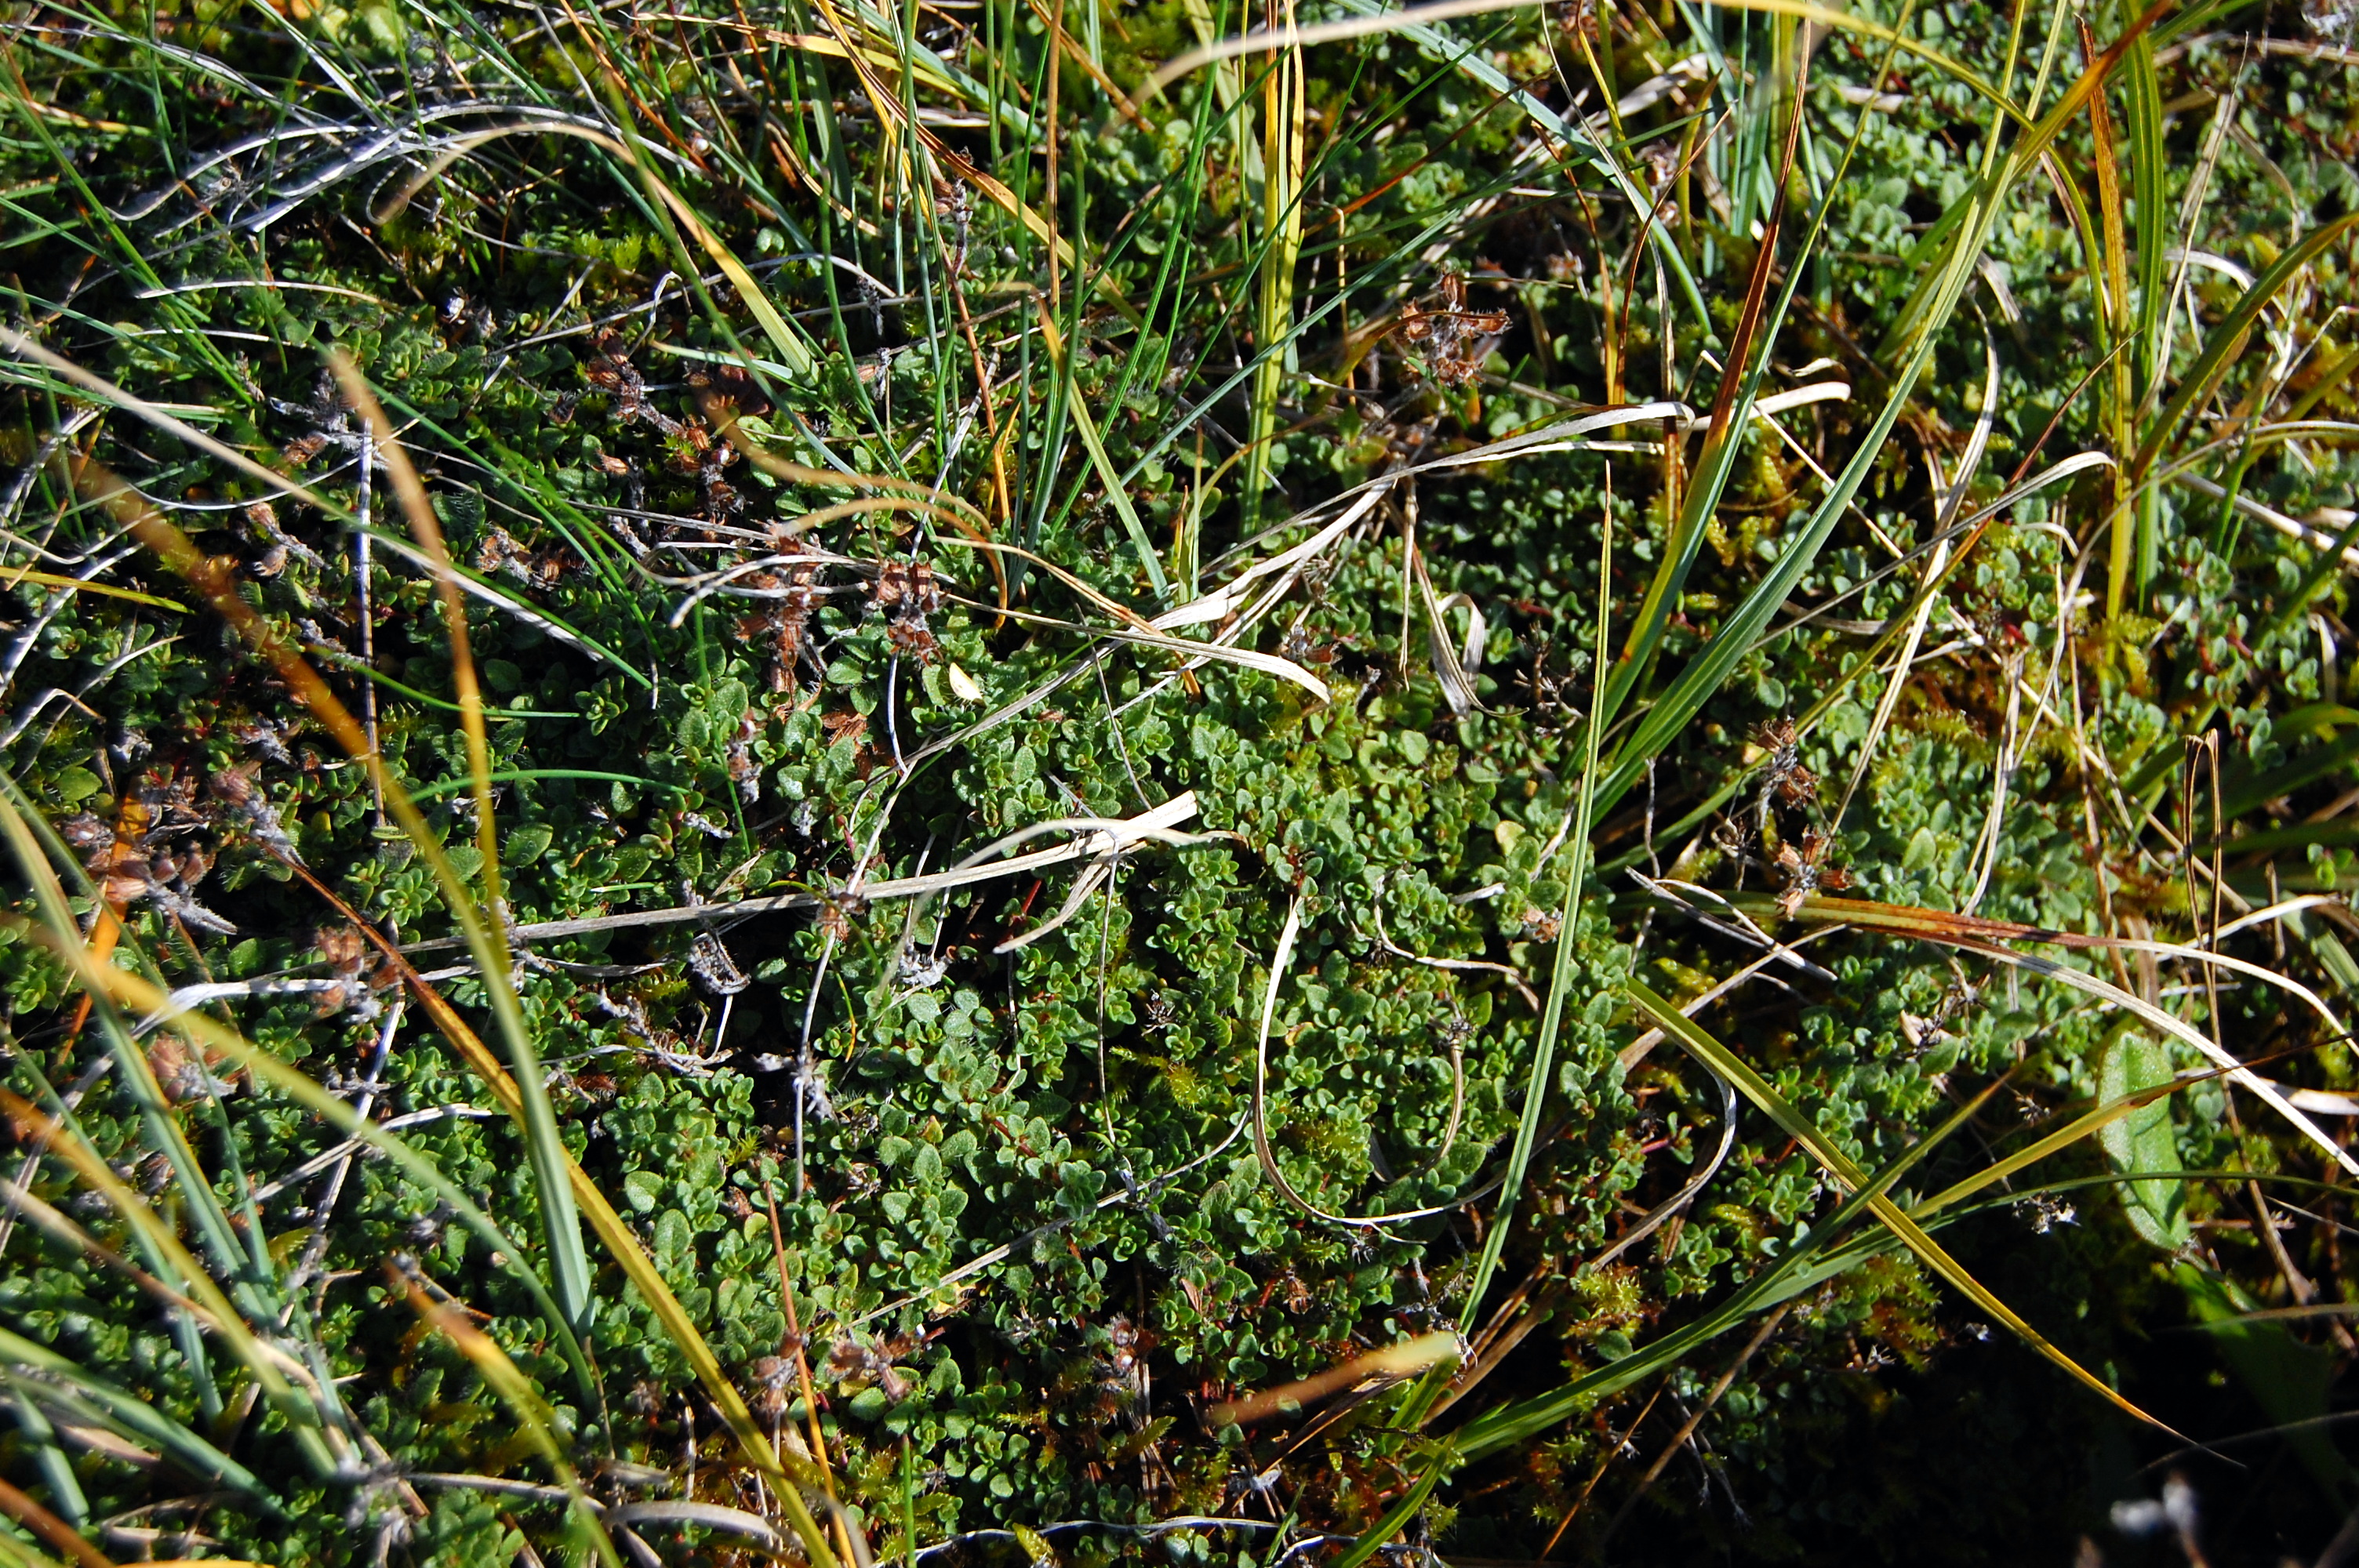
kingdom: Plantae
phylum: Tracheophyta
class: Magnoliopsida
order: Lamiales
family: Lamiaceae
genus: Thymus
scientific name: Thymus praecox
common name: Wild thyme
